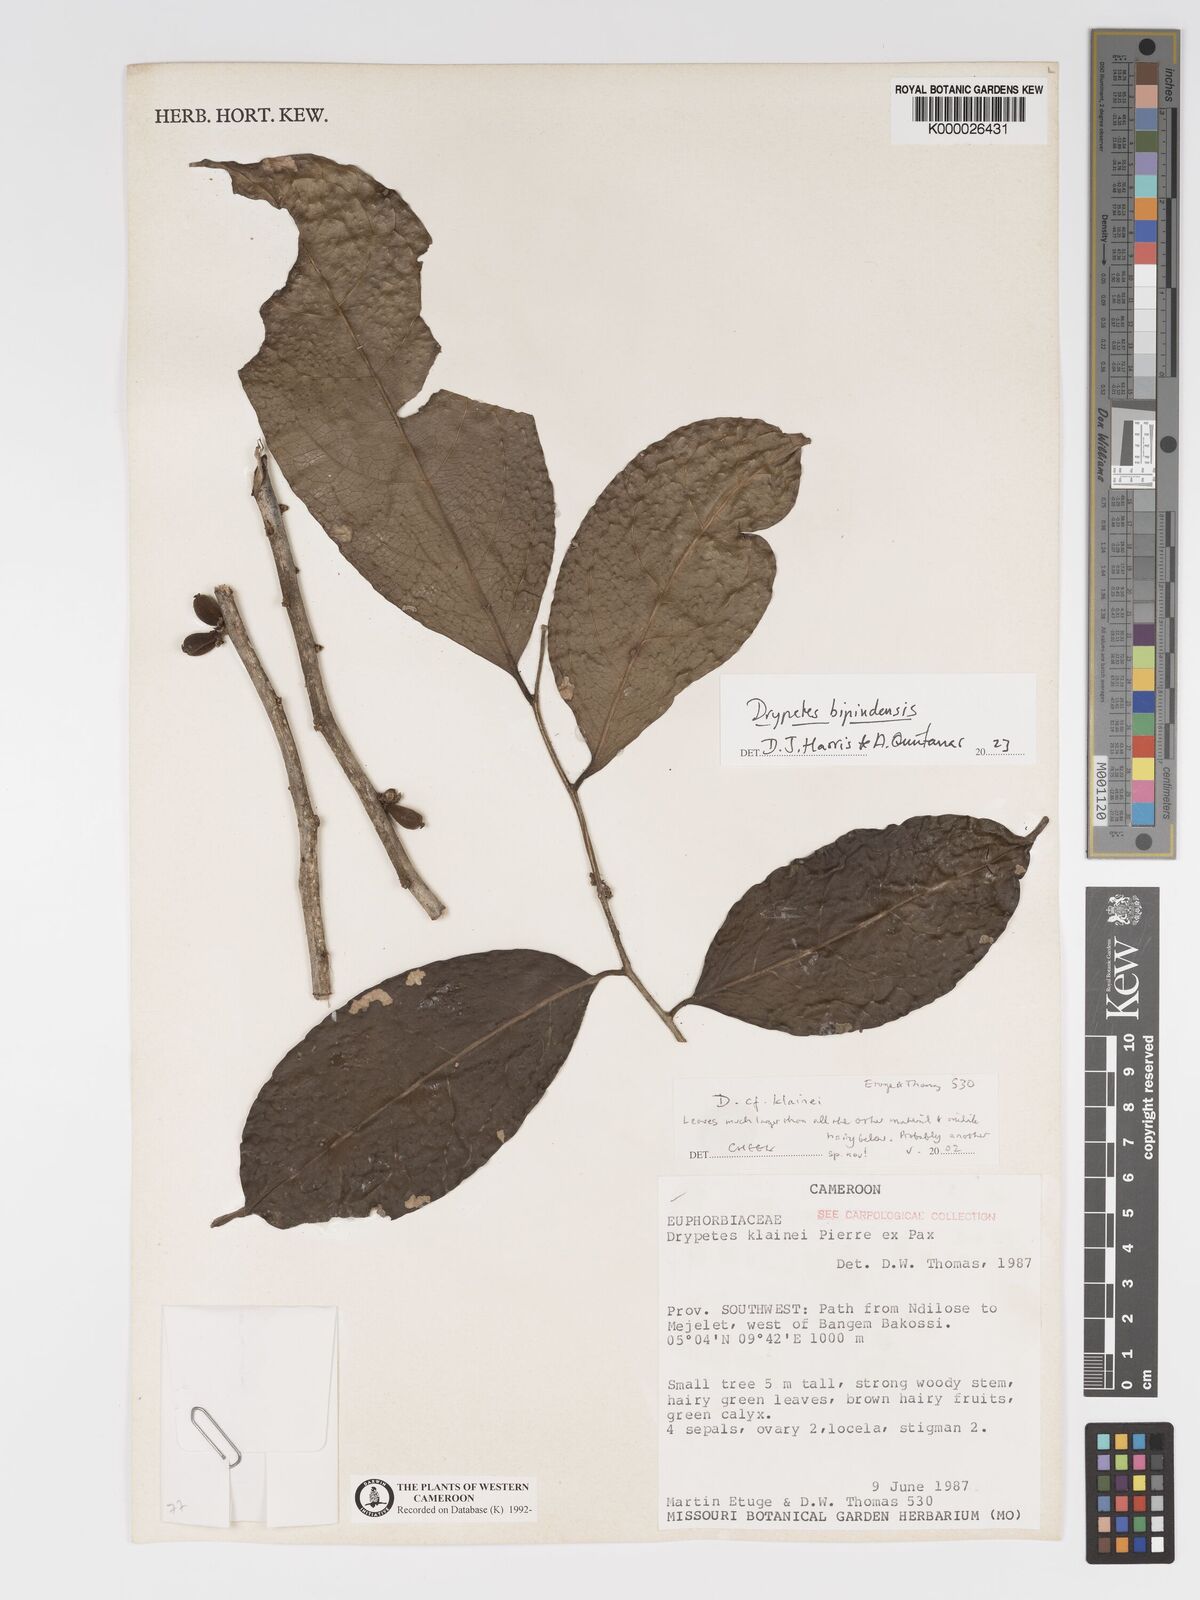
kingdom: Plantae
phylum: Tracheophyta
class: Magnoliopsida
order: Malpighiales
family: Putranjivaceae
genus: Drypetes
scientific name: Drypetes klainei
